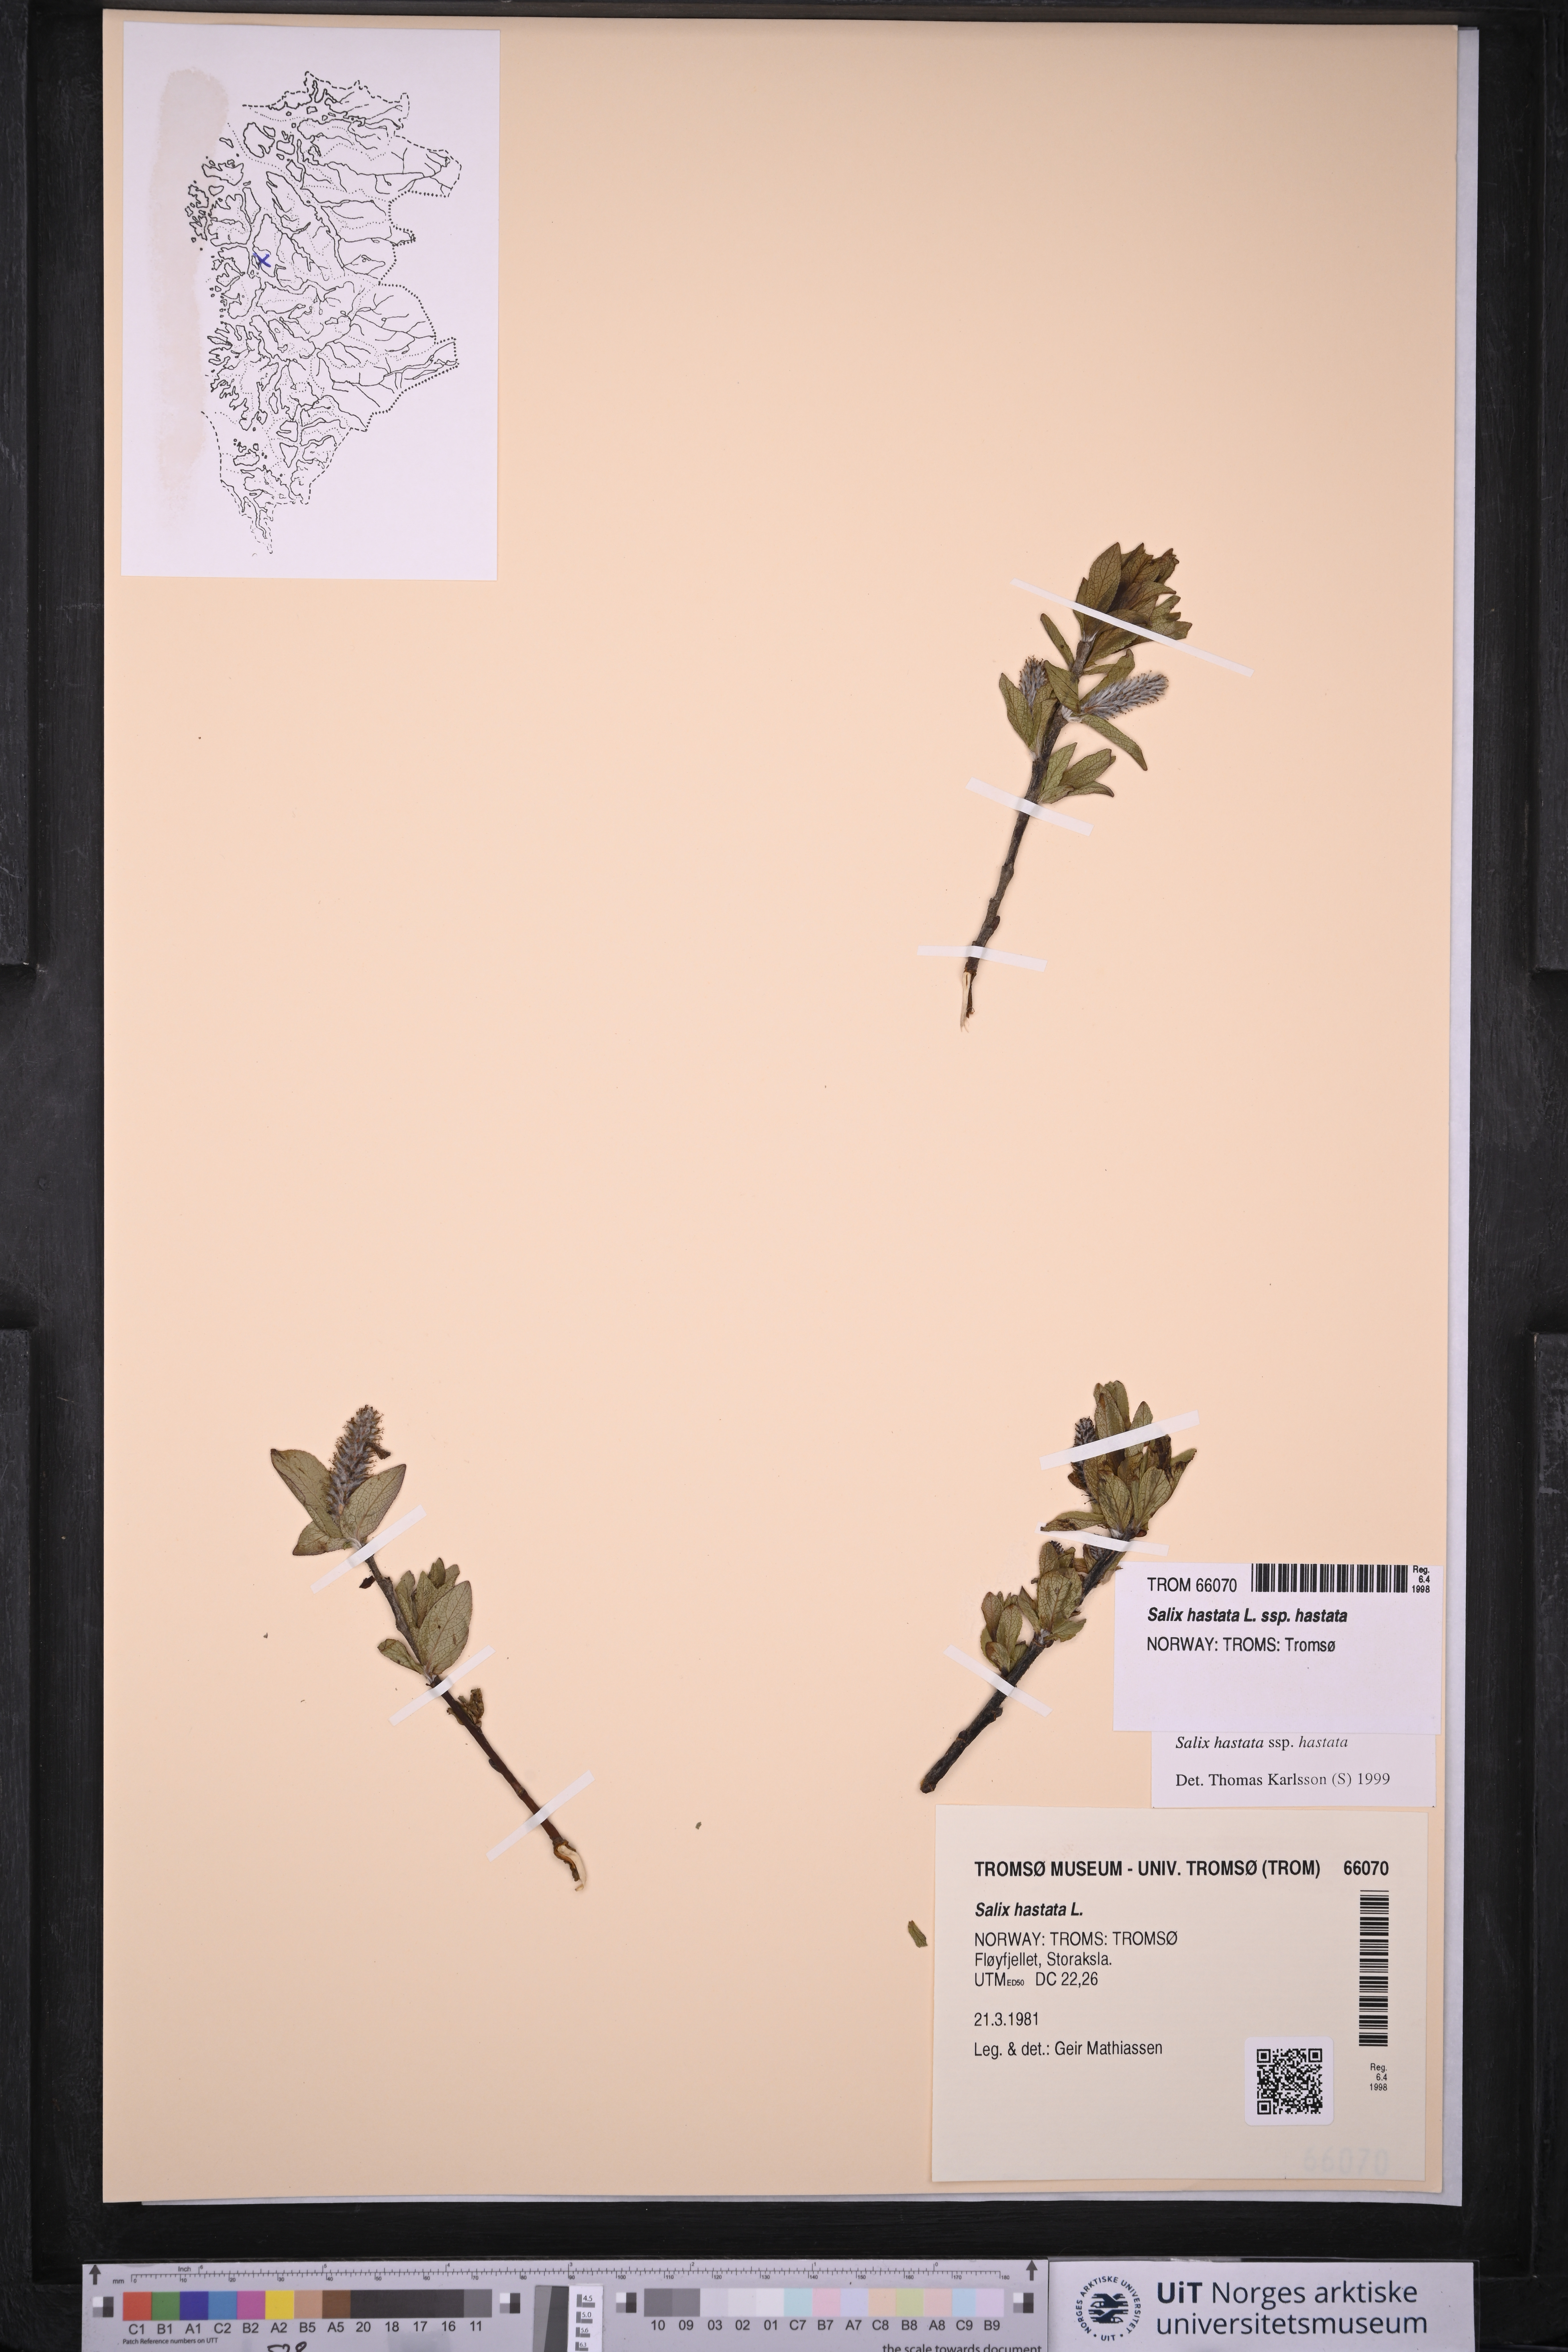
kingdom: Plantae
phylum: Tracheophyta
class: Magnoliopsida
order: Malpighiales
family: Salicaceae
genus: Salix
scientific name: Salix hastata
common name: Halberd willow
